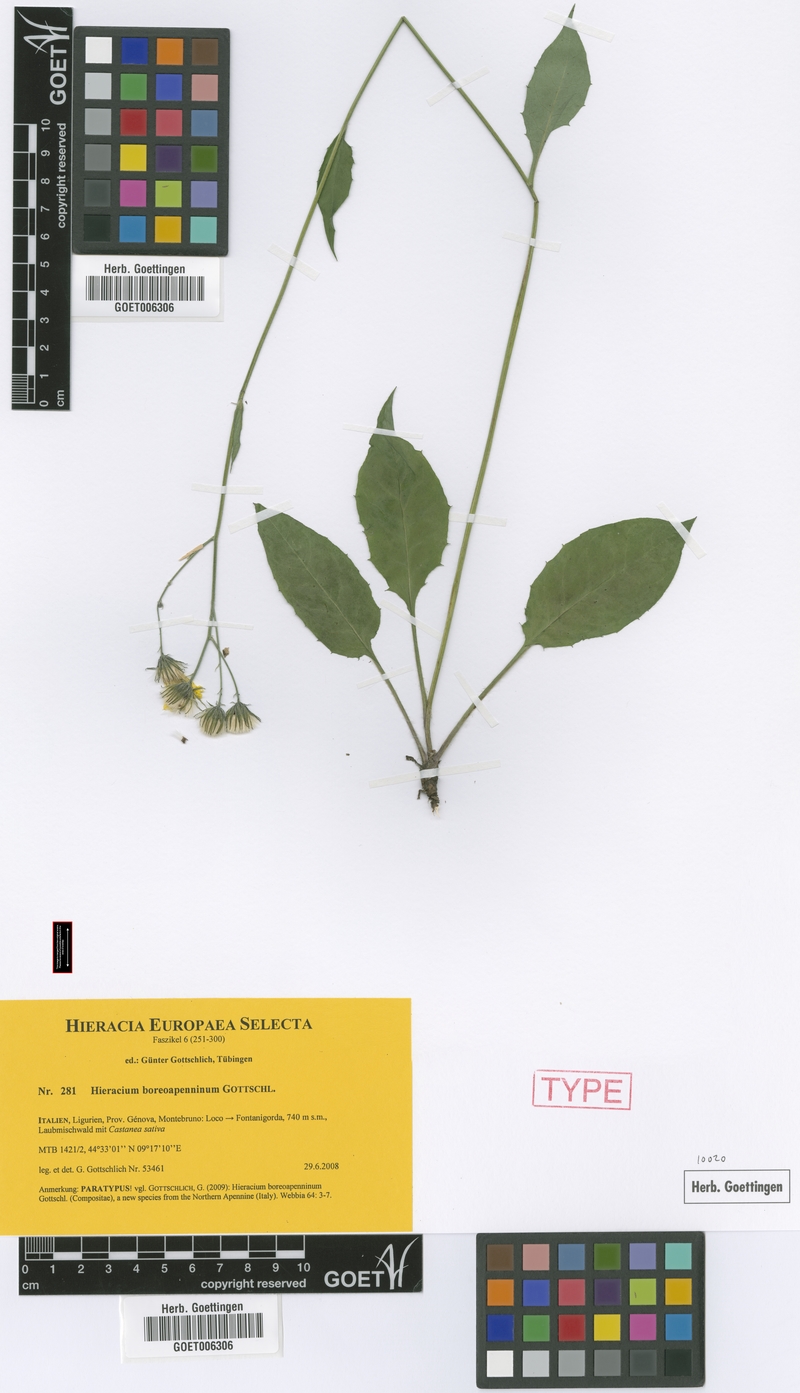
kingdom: Plantae
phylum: Tracheophyta
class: Magnoliopsida
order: Asterales
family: Asteraceae
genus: Hieracium
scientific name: Hieracium boreoapenninum
